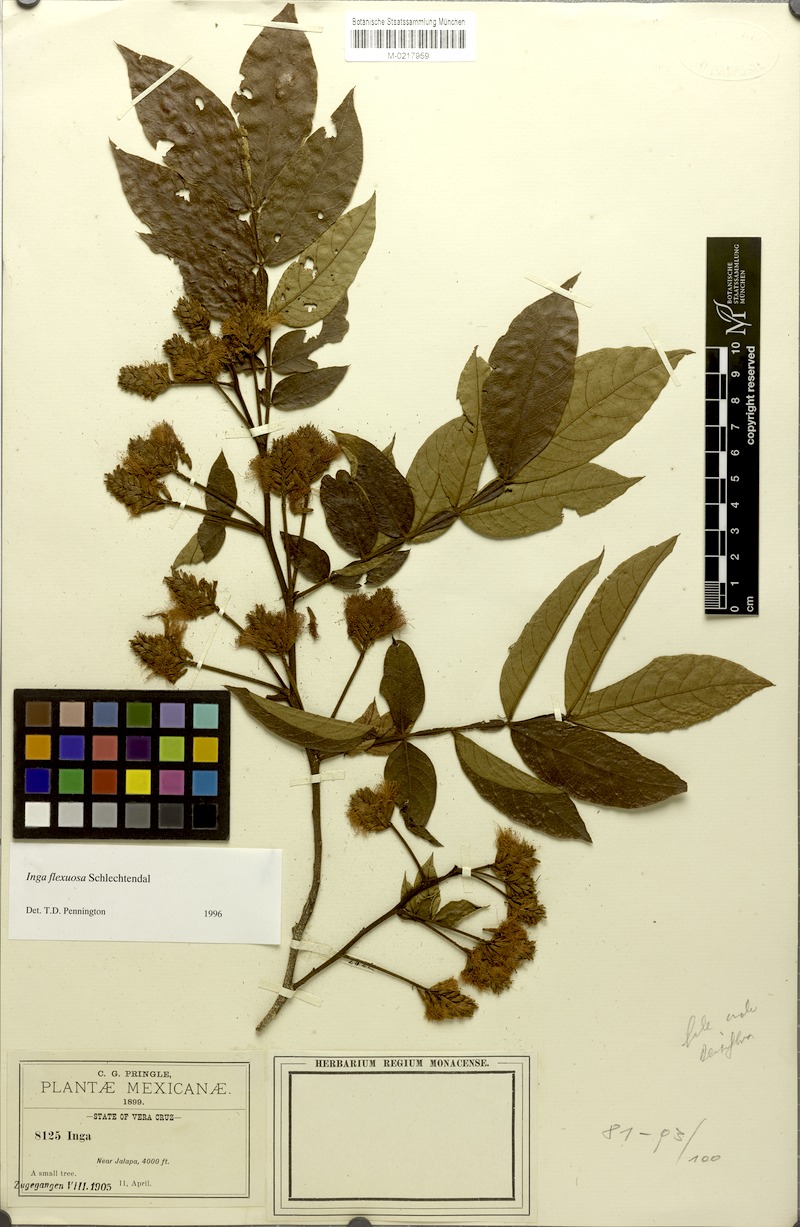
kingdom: Plantae
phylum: Tracheophyta
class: Magnoliopsida
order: Fabales
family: Fabaceae
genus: Inga
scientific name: Inga flexuosa
